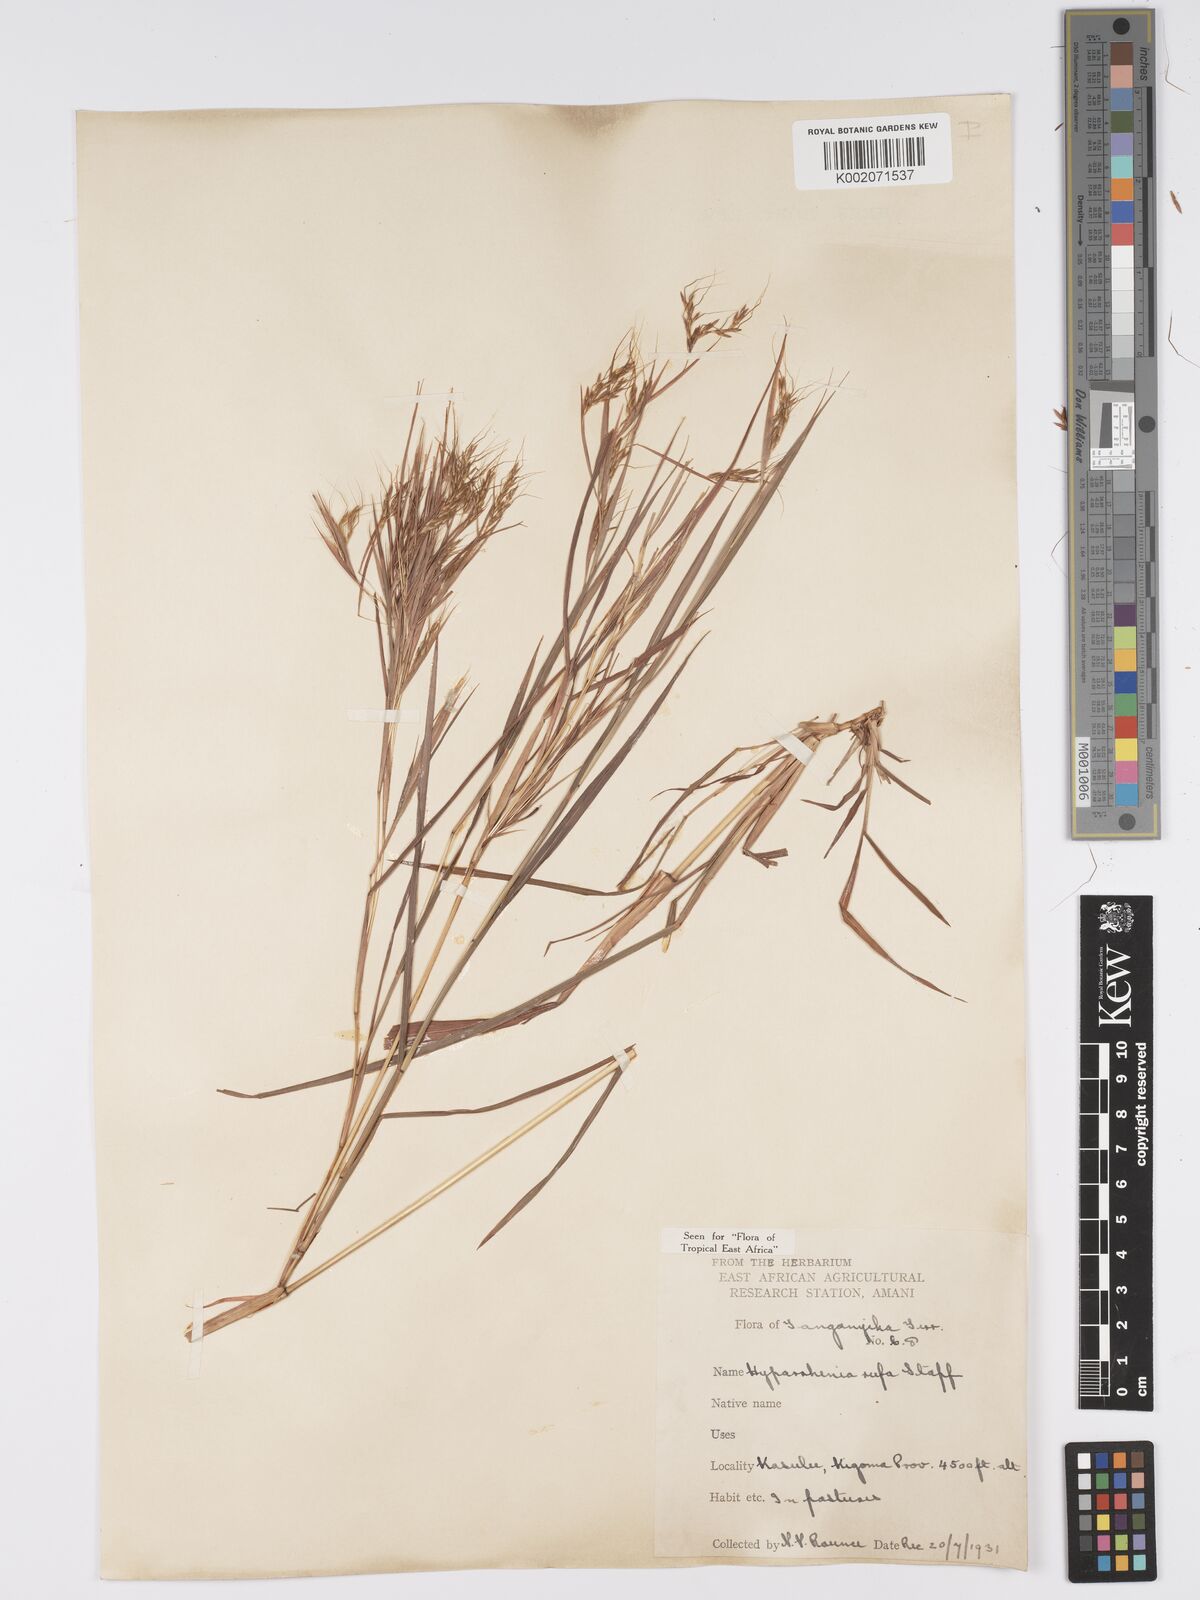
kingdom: Plantae
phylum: Tracheophyta
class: Liliopsida
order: Poales
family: Poaceae
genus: Hyparrhenia
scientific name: Hyparrhenia rufa
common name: Jaraguagrass
